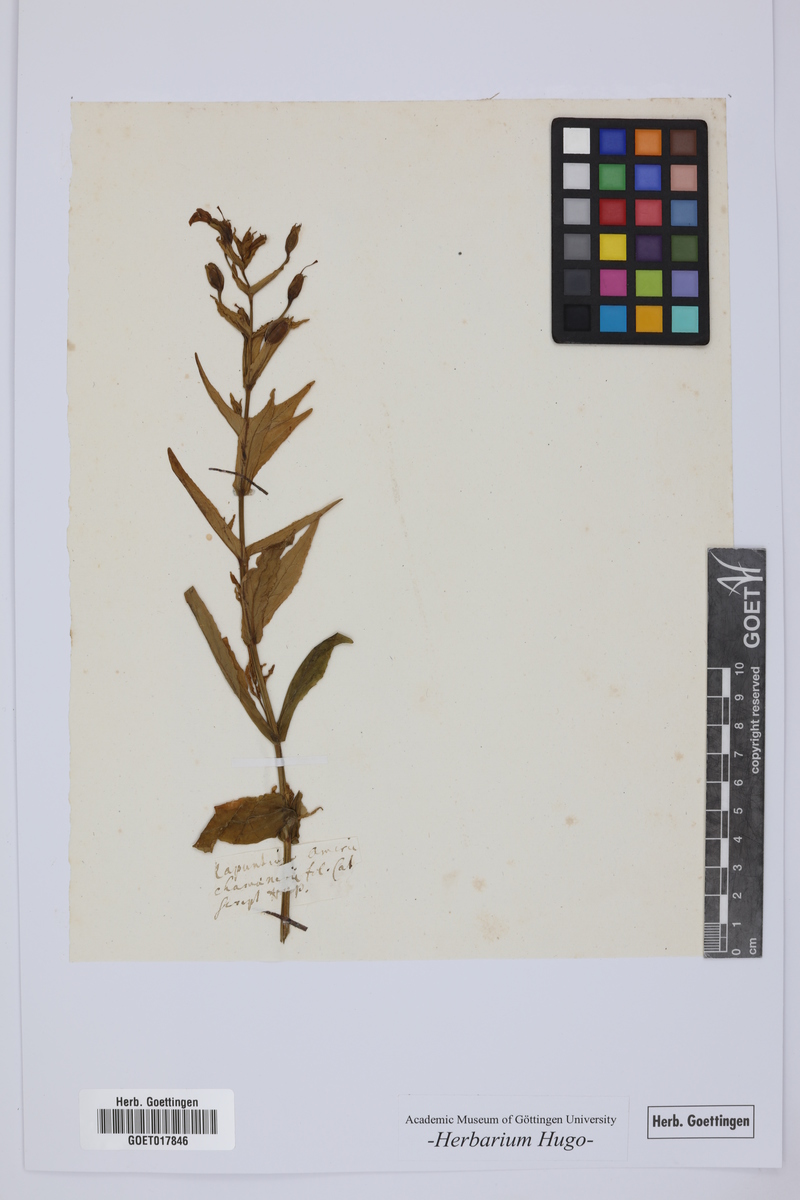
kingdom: Plantae
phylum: Tracheophyta
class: Magnoliopsida
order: Asterales
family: Campanulaceae
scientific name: Campanulaceae
